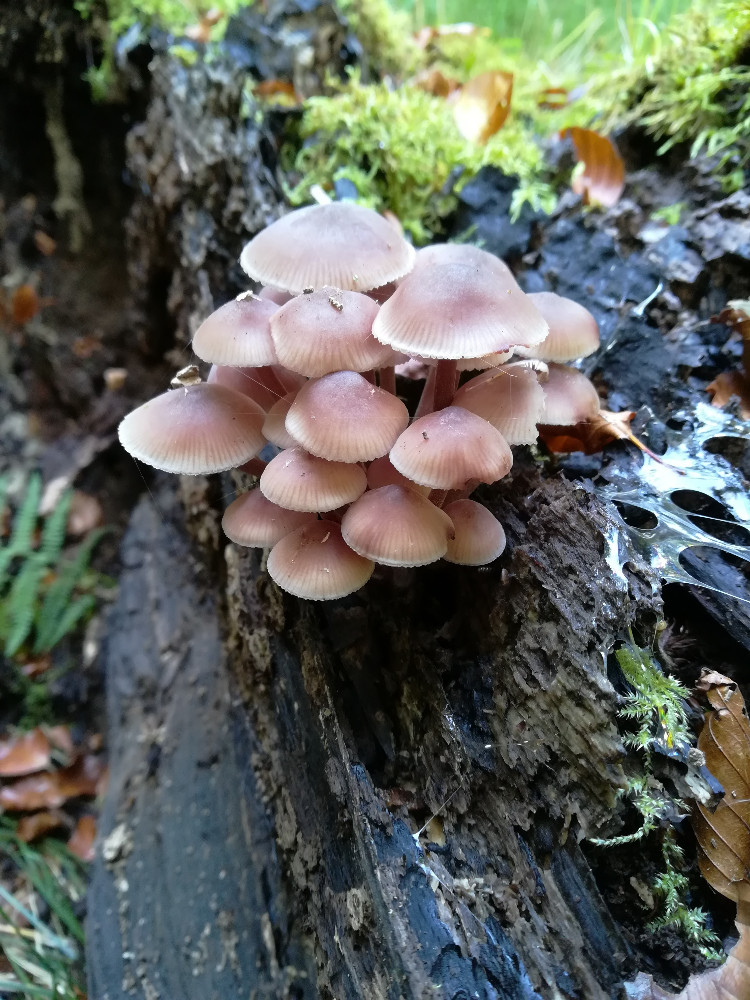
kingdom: Fungi
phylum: Basidiomycota
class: Agaricomycetes
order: Agaricales
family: Mycenaceae
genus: Mycena
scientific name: Mycena haematopus
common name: blødende huesvamp
